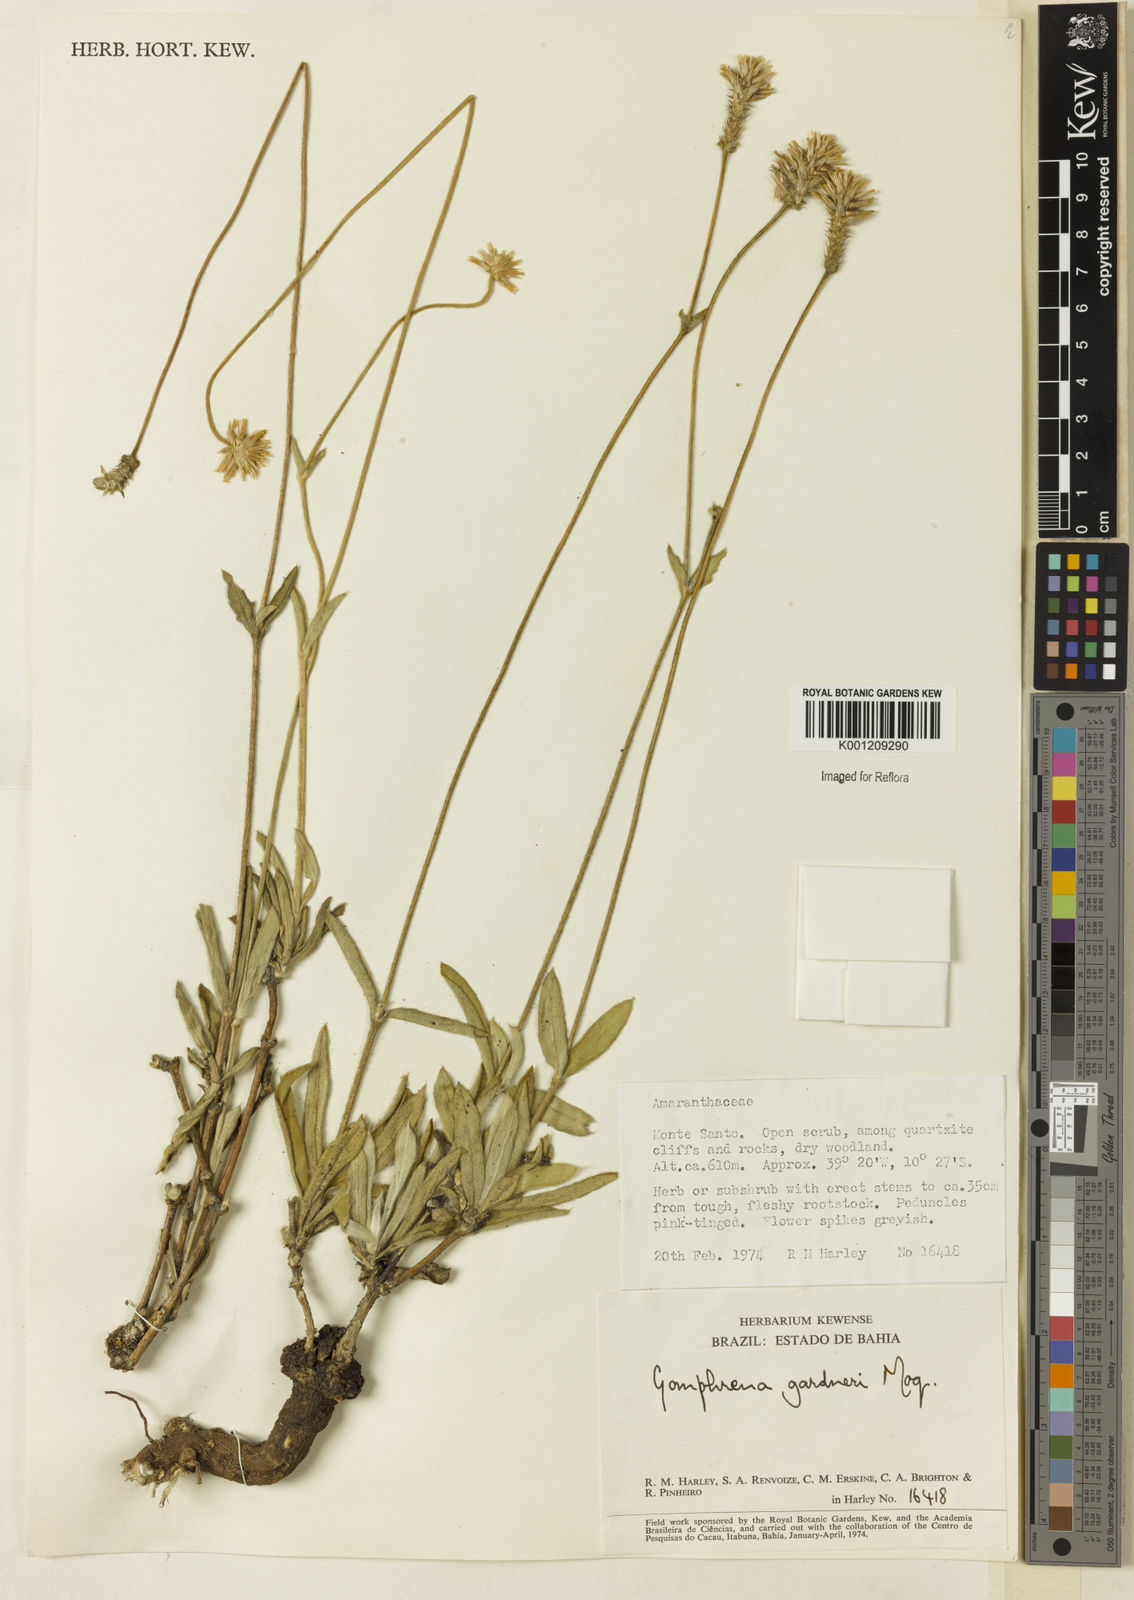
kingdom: Plantae
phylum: Tracheophyta
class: Magnoliopsida
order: Caryophyllales
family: Amaranthaceae
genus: Gomphrena
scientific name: Gomphrena gardneri
